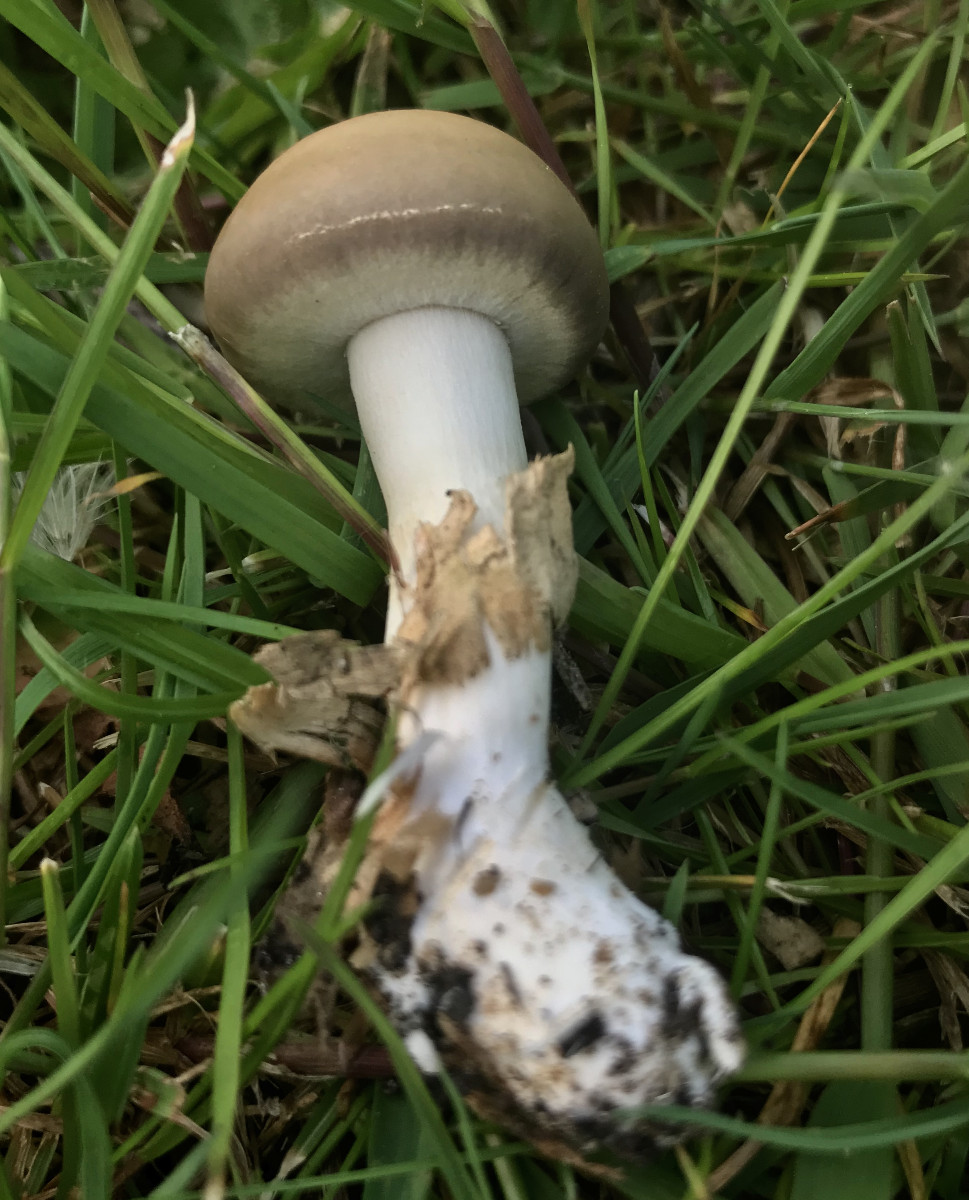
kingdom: Fungi
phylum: Basidiomycota
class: Agaricomycetes
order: Agaricales
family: Strophariaceae
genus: Agrocybe
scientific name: Agrocybe praecox
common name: tidlig agerhat
